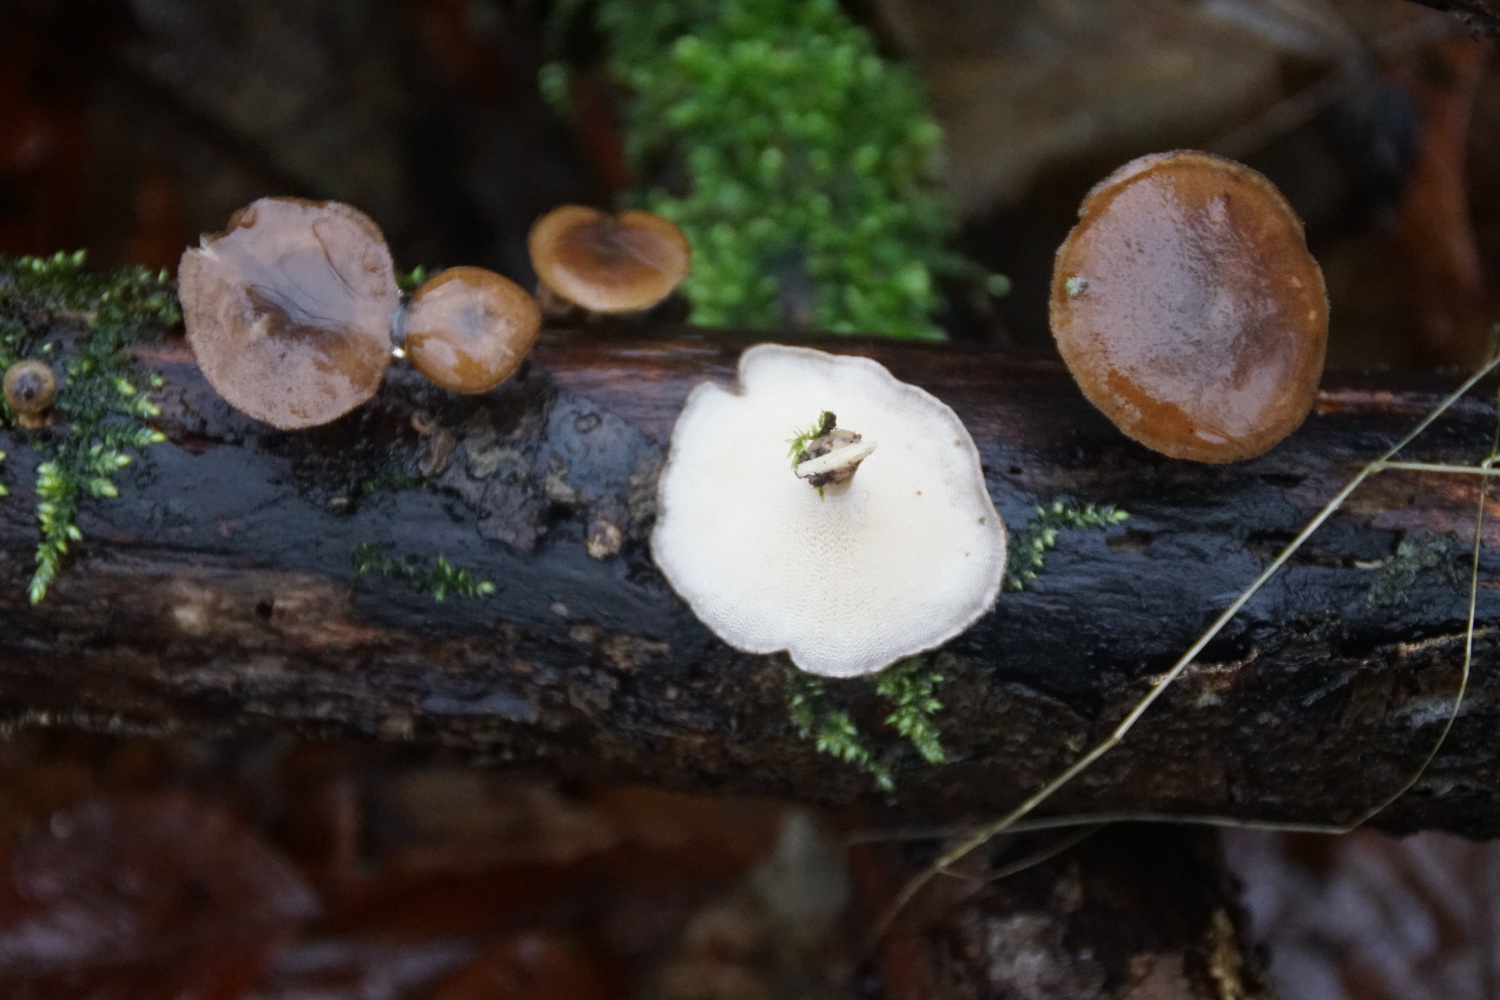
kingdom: Fungi
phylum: Basidiomycota
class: Agaricomycetes
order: Polyporales
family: Polyporaceae
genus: Lentinus
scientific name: Lentinus brumalis
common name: vinter-stilkporesvamp
